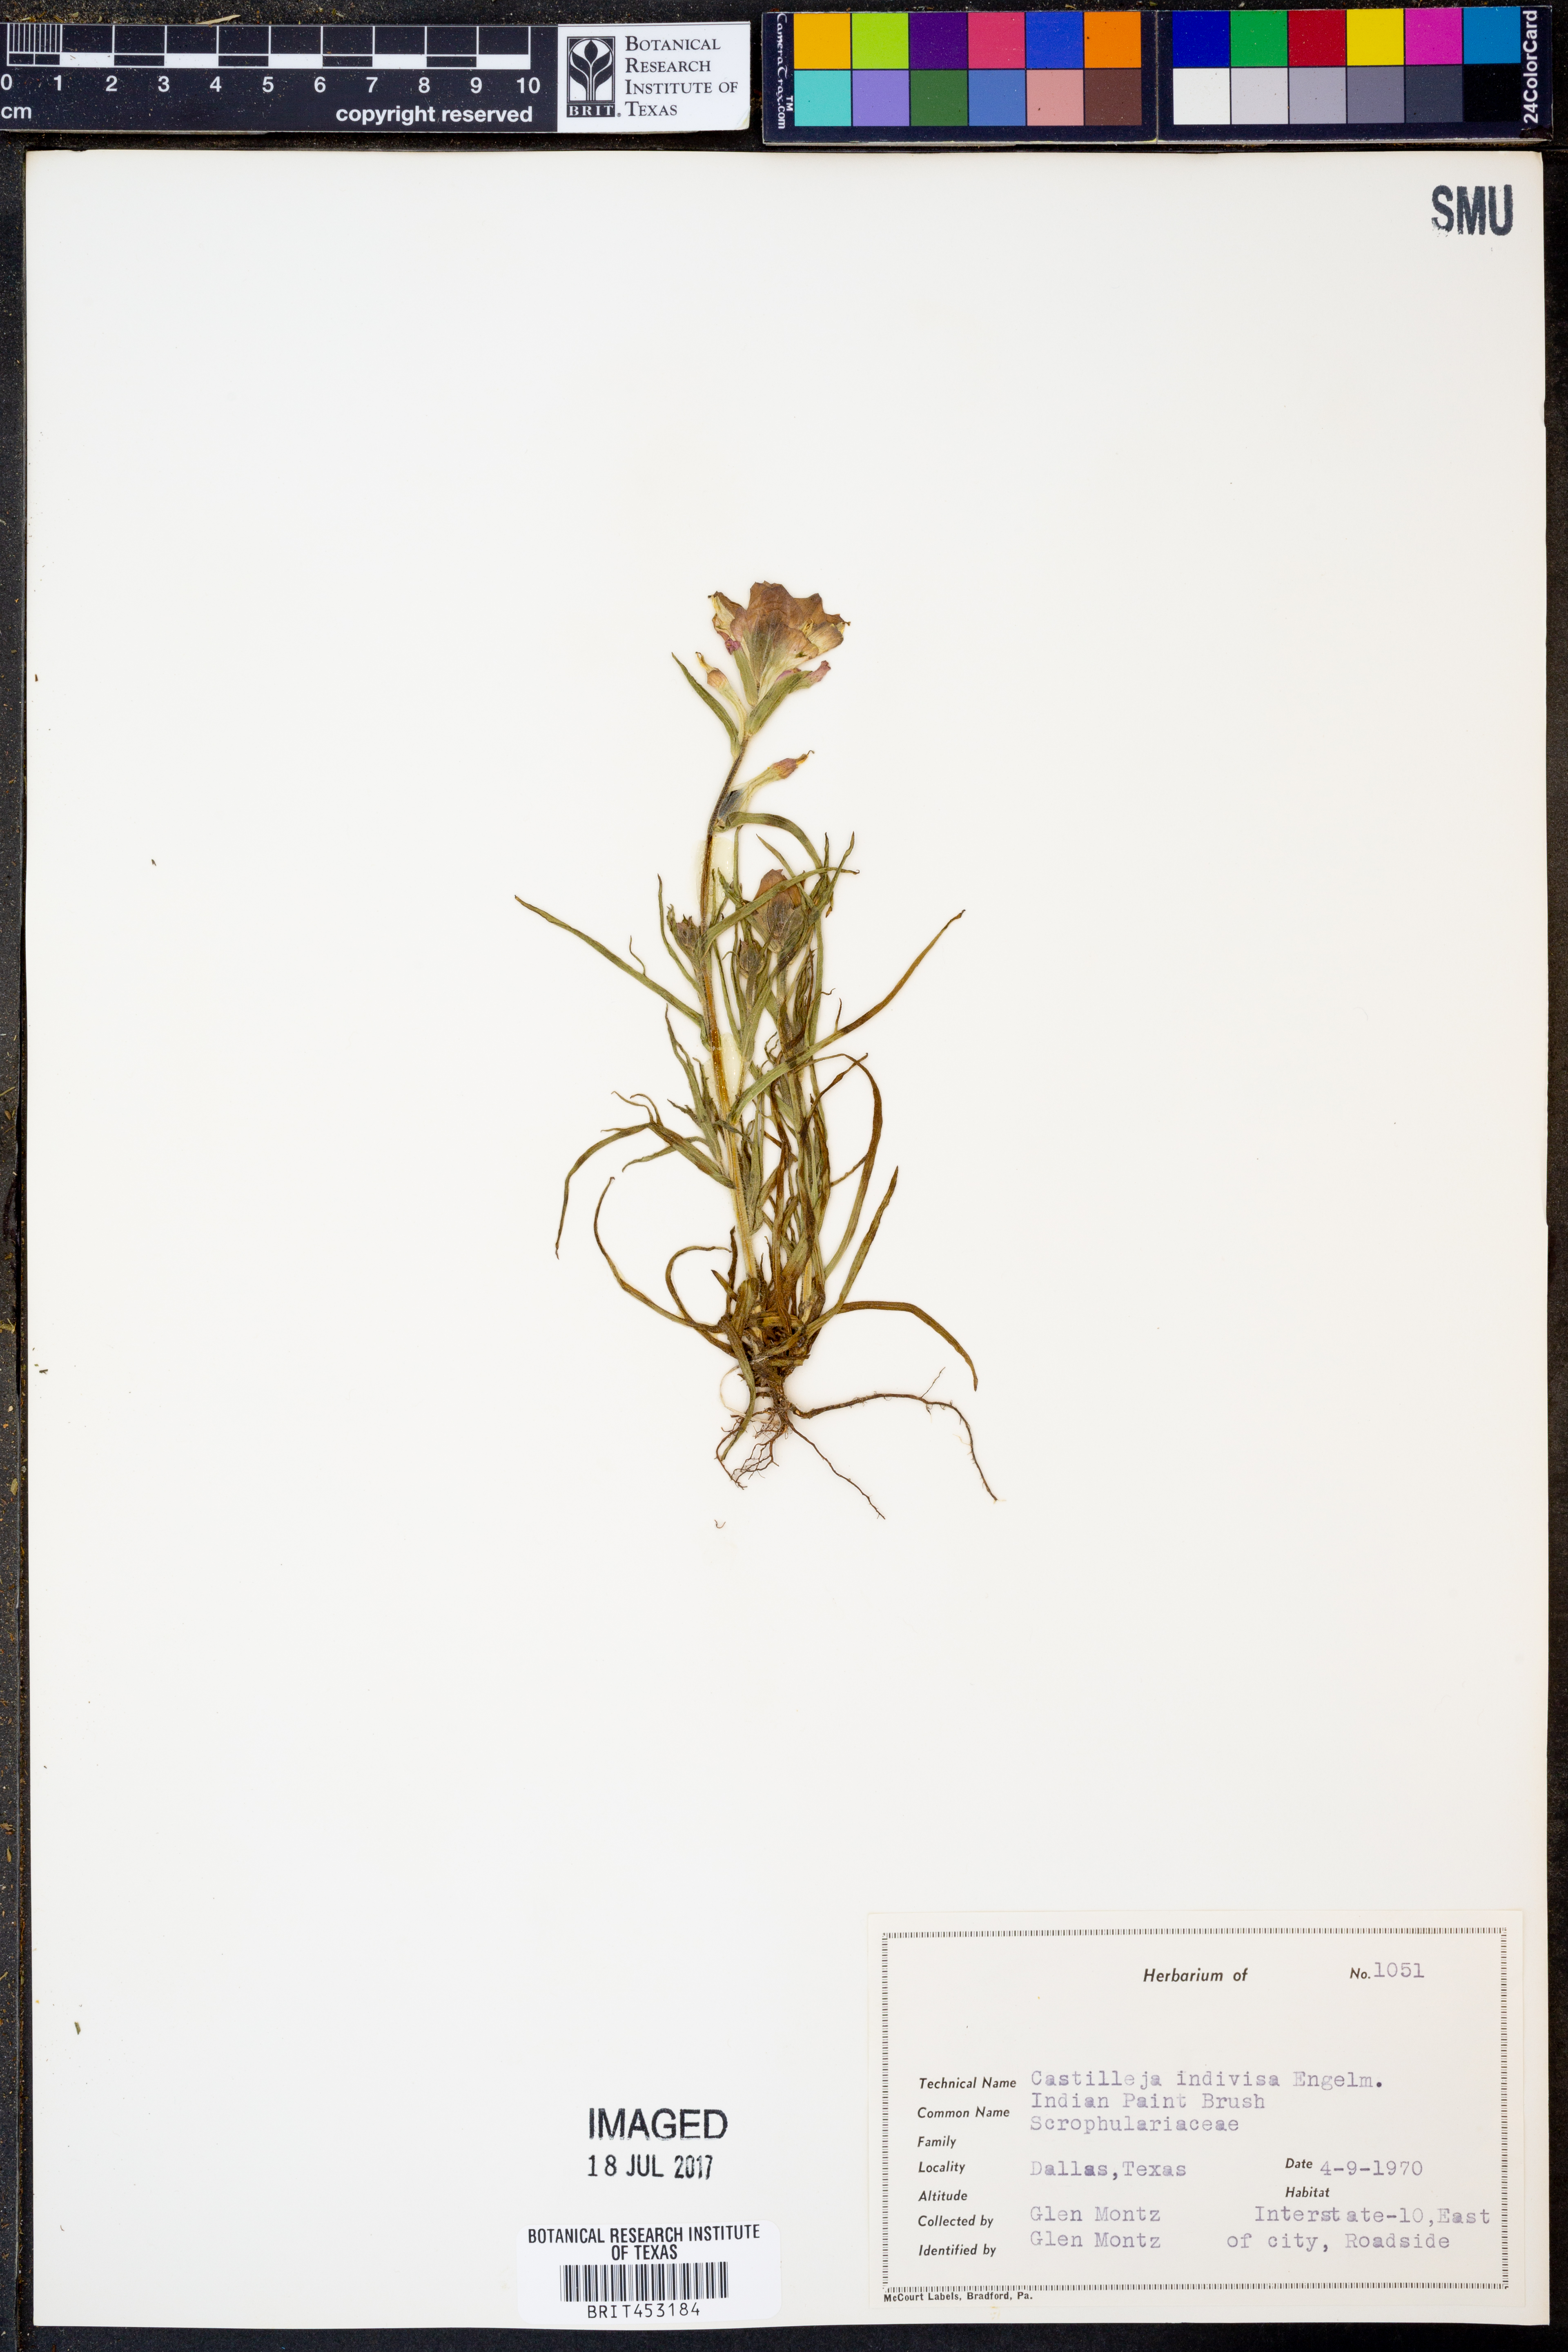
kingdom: Plantae
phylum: Tracheophyta
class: Magnoliopsida
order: Lamiales
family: Orobanchaceae
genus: Castilleja
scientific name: Castilleja indivisa
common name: Texas paintbrush
